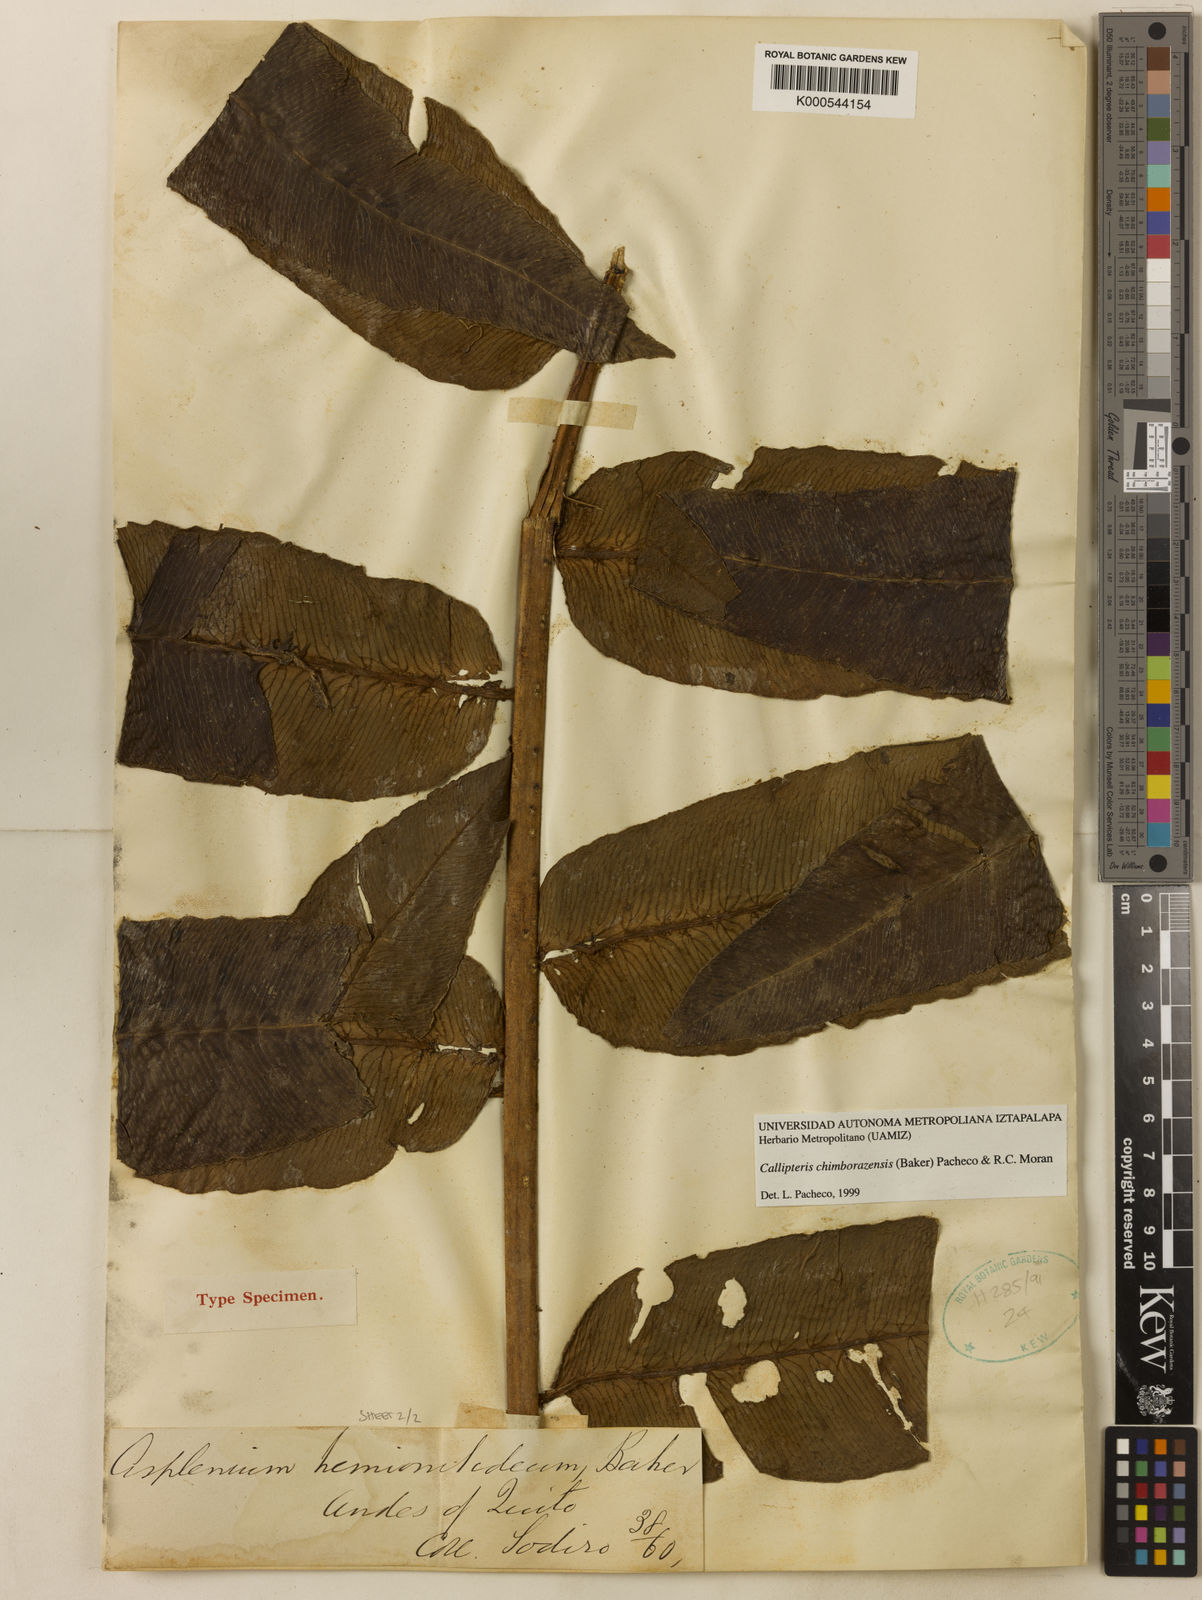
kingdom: Plantae
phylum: Tracheophyta
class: Polypodiopsida
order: Polypodiales
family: Athyriaceae
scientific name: Athyriaceae
